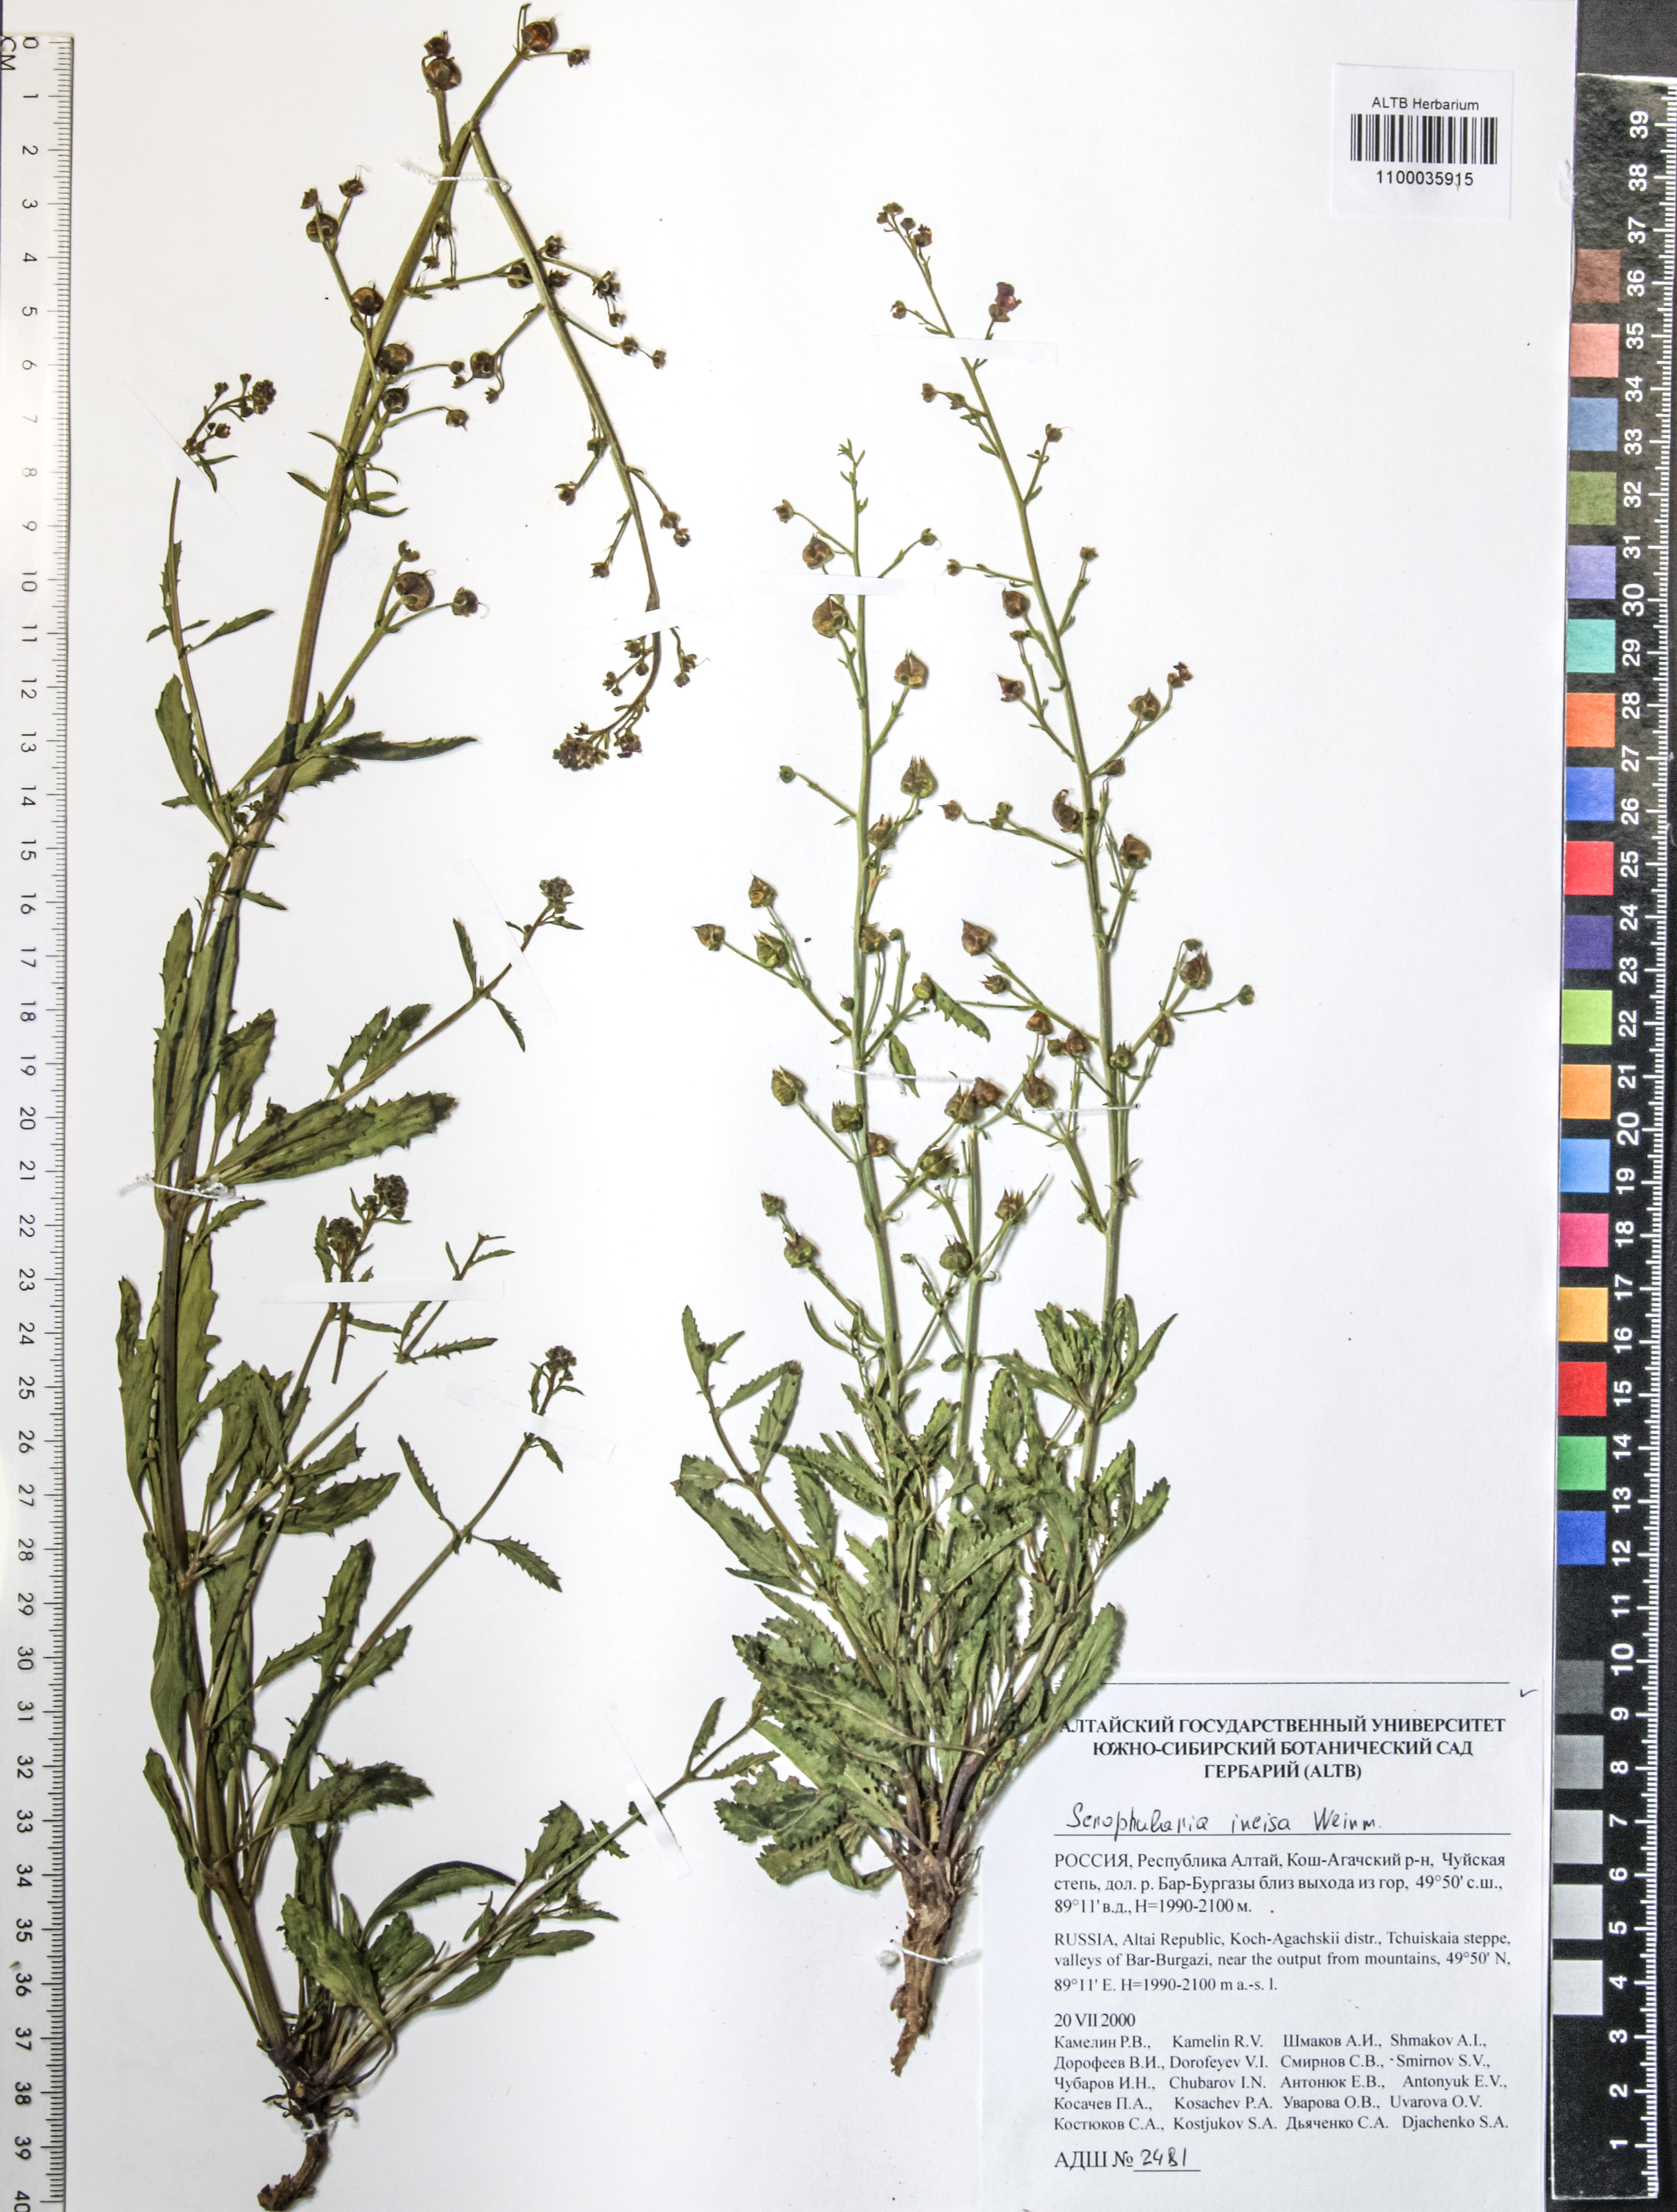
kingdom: Plantae
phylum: Tracheophyta
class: Magnoliopsida
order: Lamiales
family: Scrophulariaceae
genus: Scrophularia
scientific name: Scrophularia incisa
